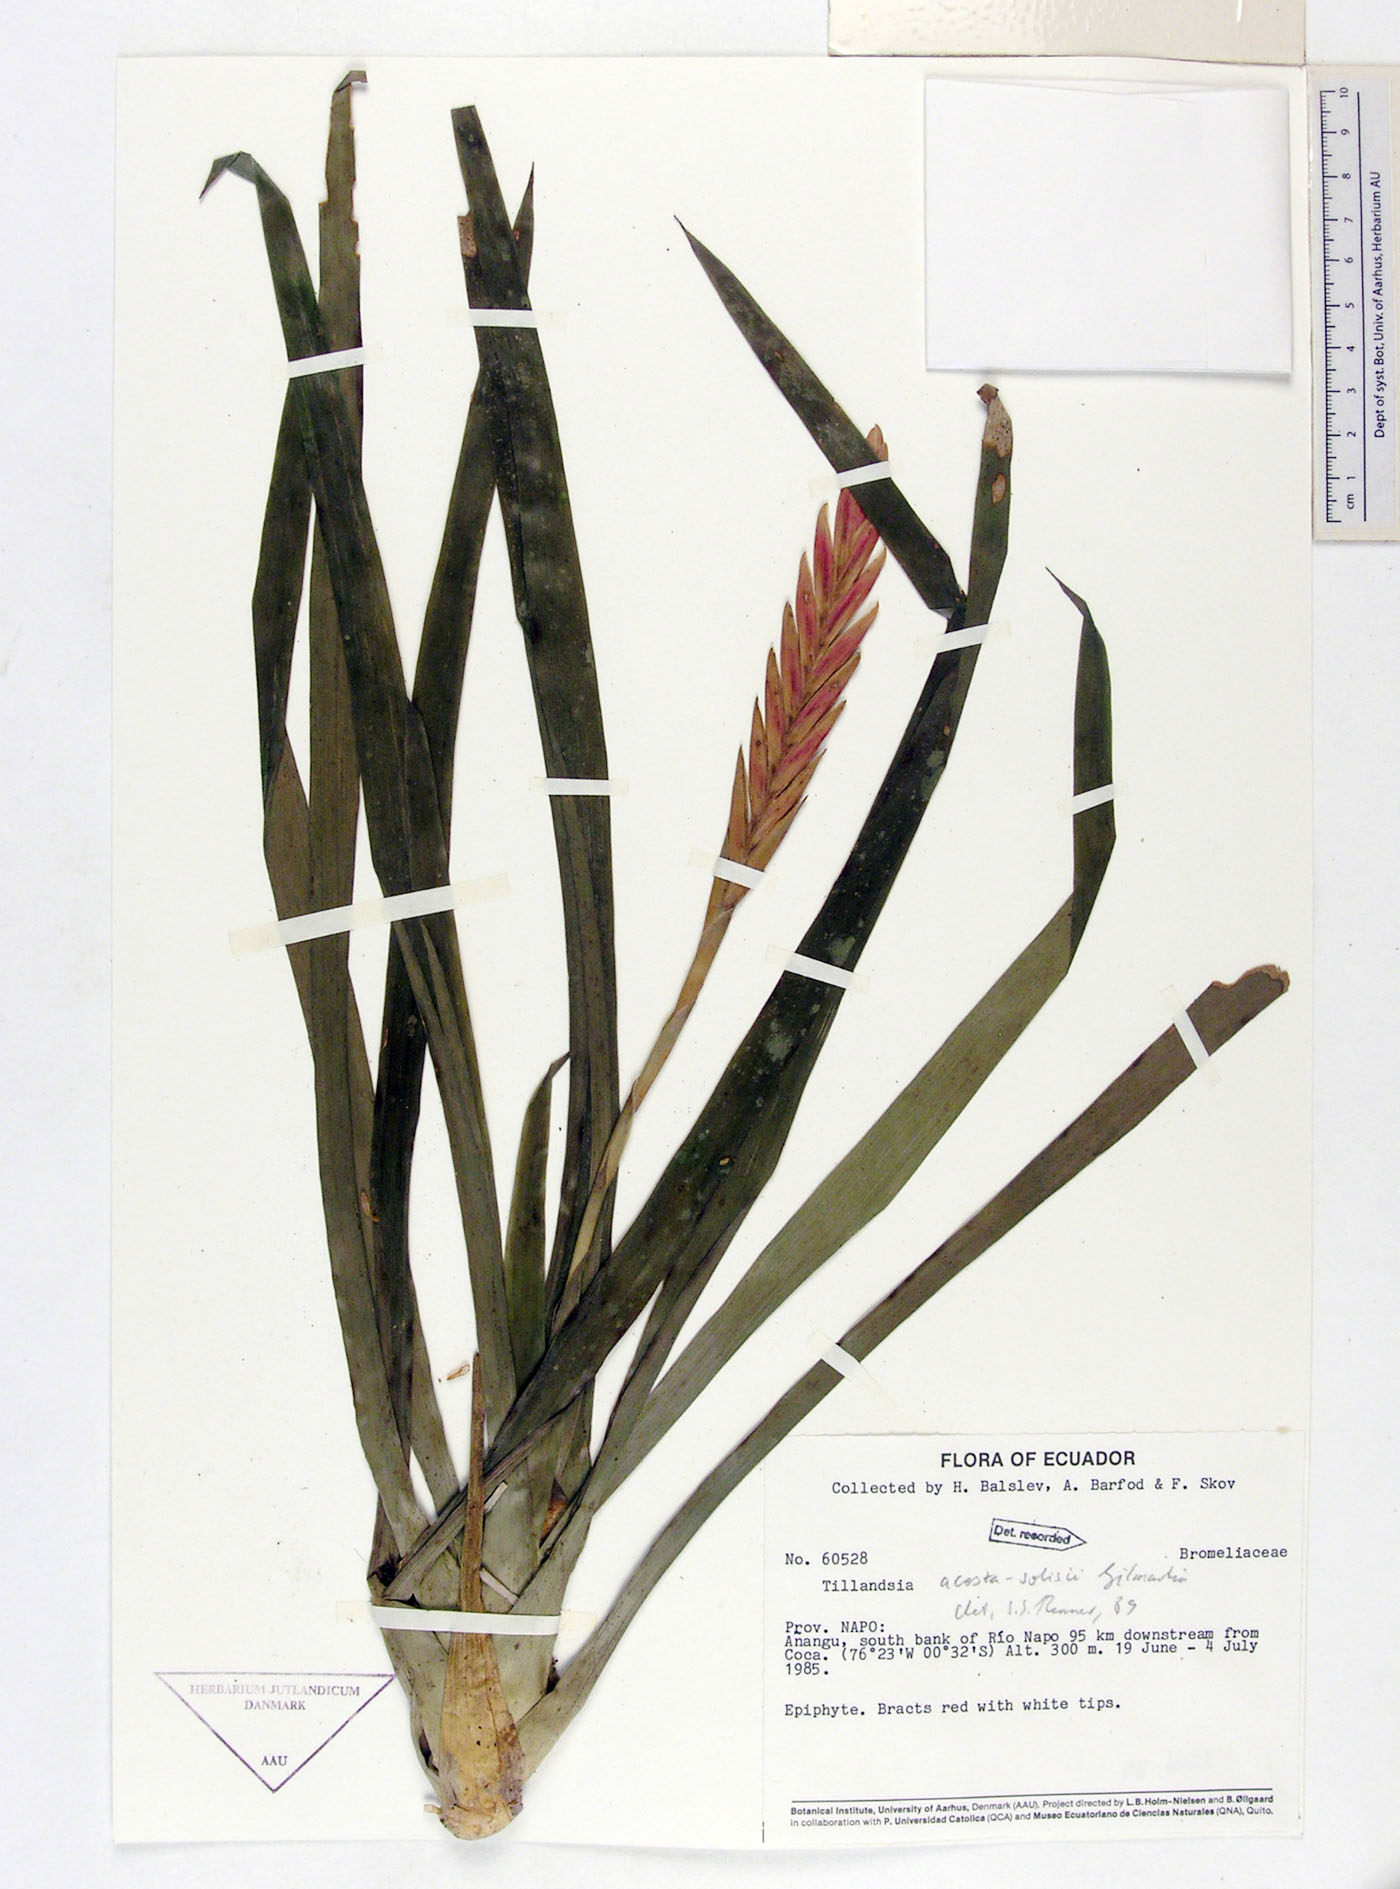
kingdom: Plantae
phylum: Tracheophyta
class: Liliopsida
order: Poales
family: Bromeliaceae
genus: Lemeltonia
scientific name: Lemeltonia acosta-solisii
